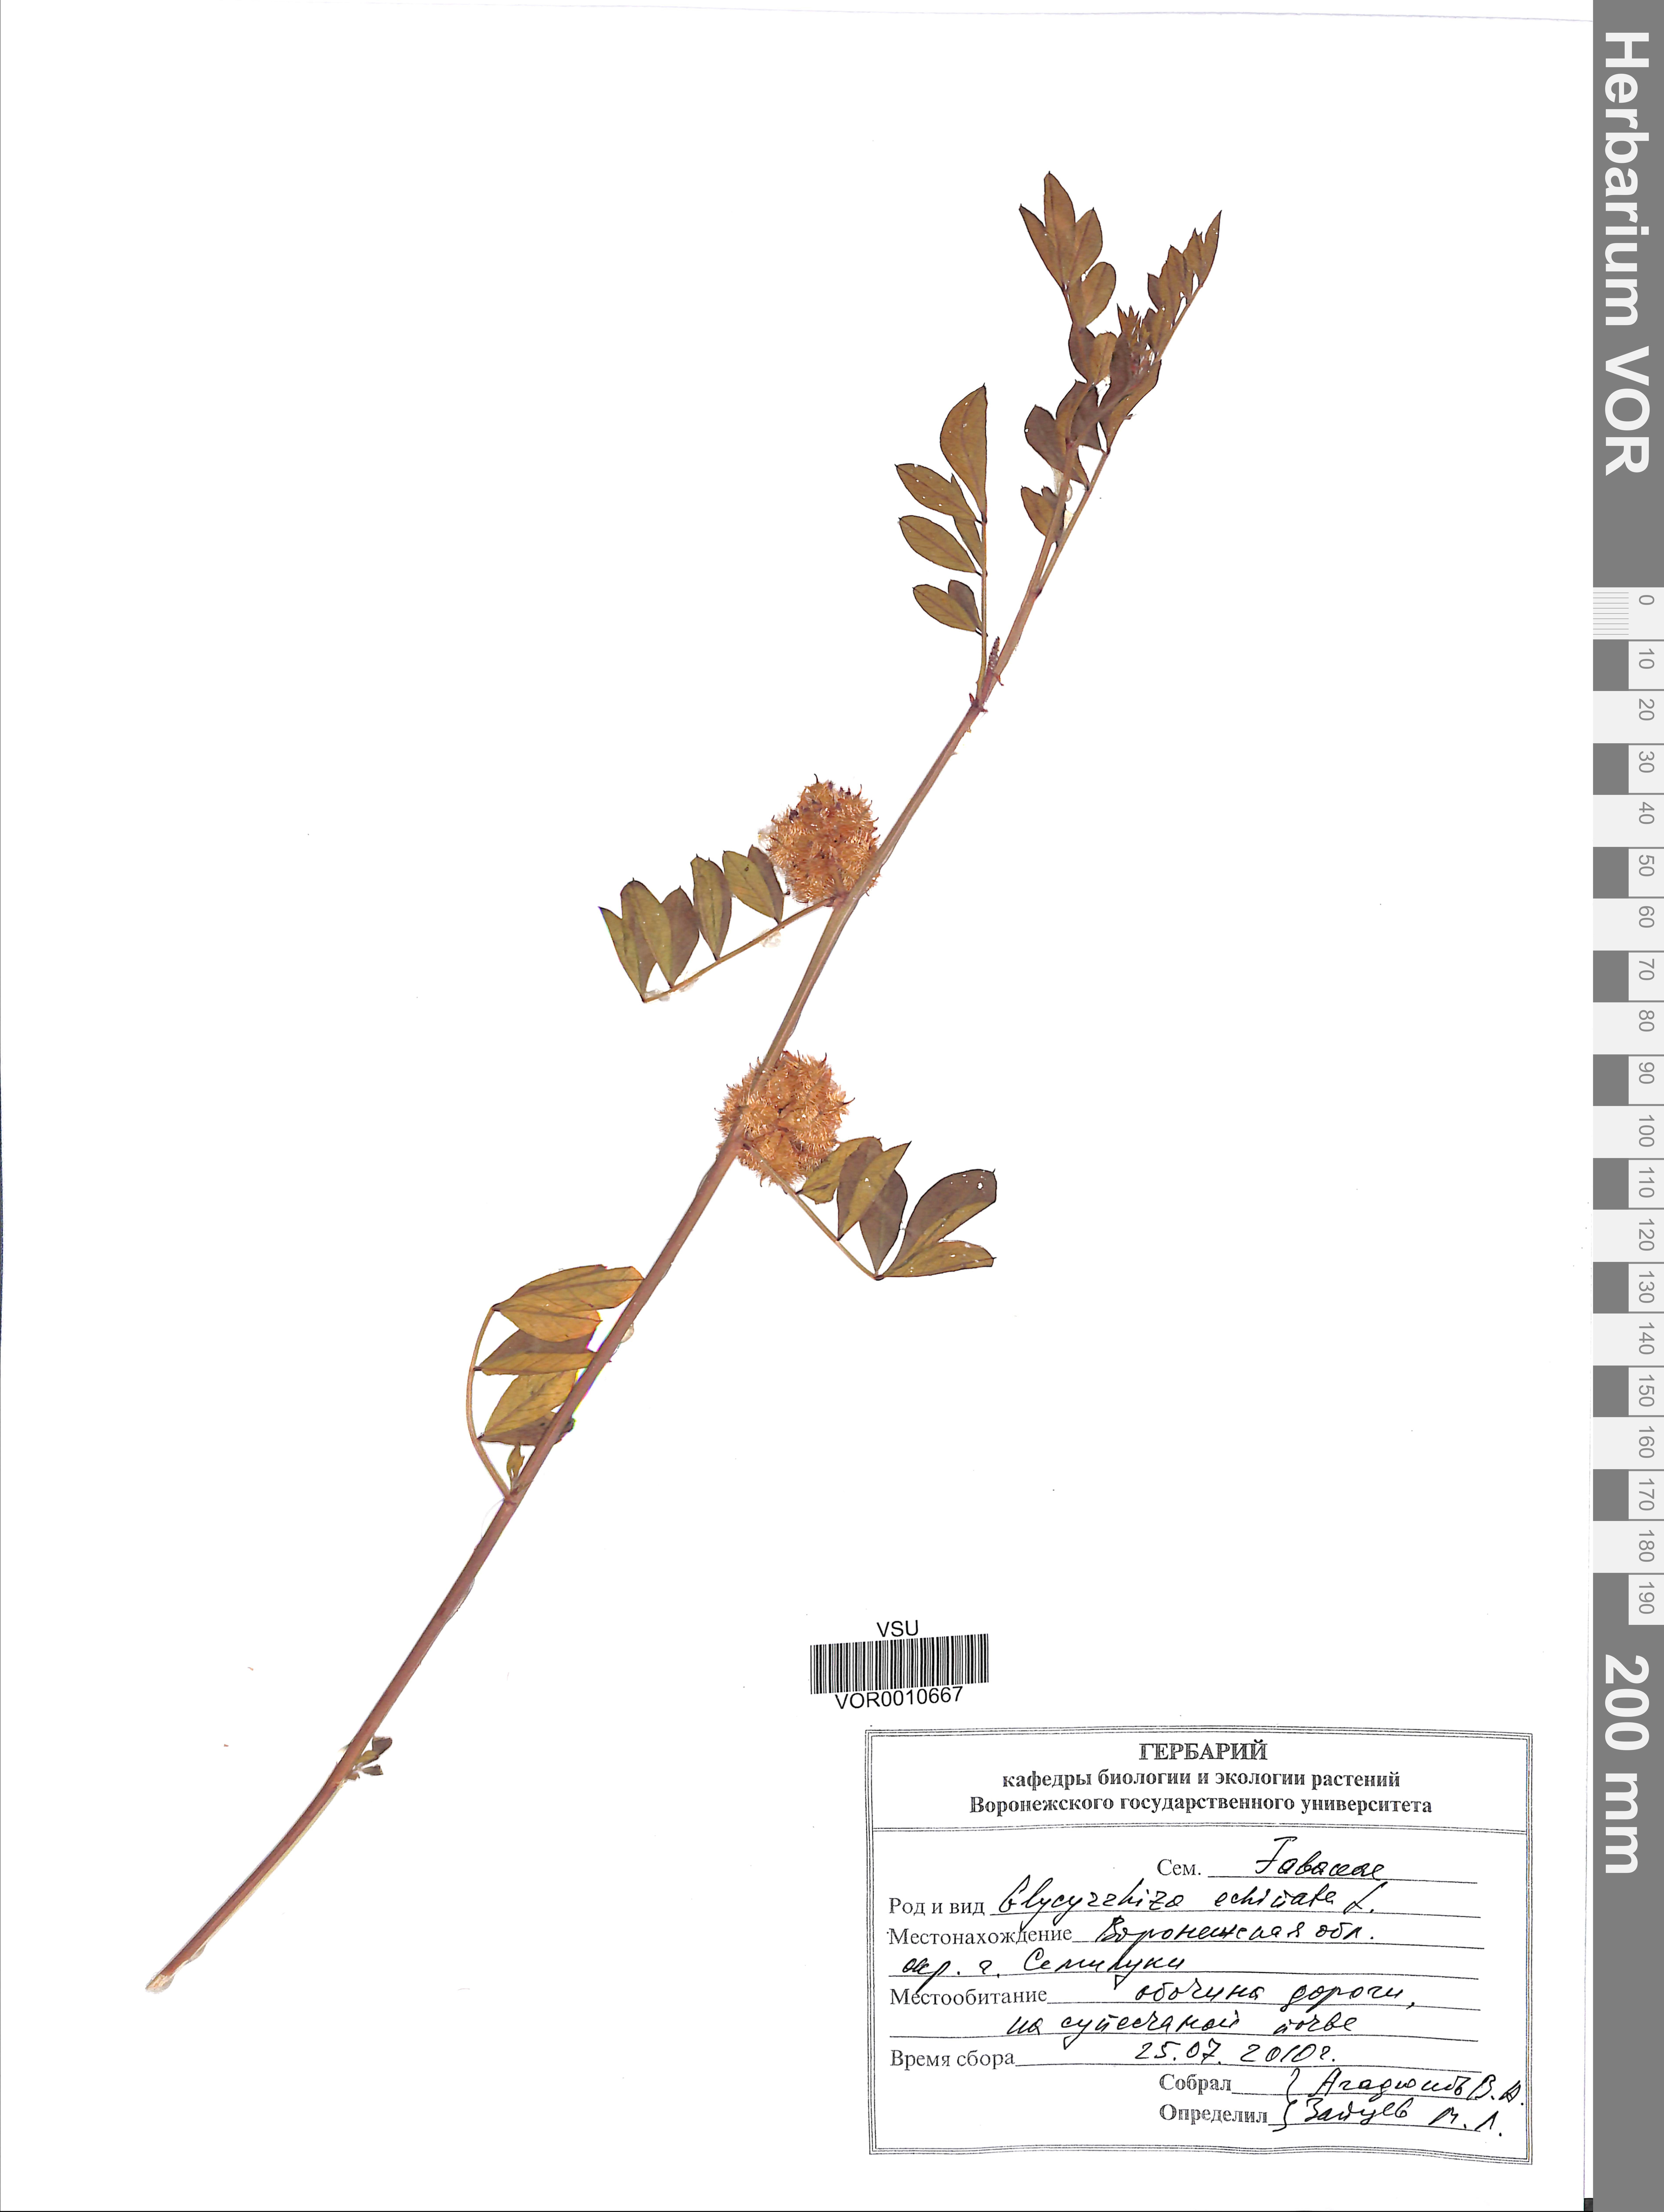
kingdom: Plantae
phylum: Tracheophyta
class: Magnoliopsida
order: Fabales
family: Fabaceae
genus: Glycyrrhiza
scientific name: Glycyrrhiza echinata
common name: German liquorice
